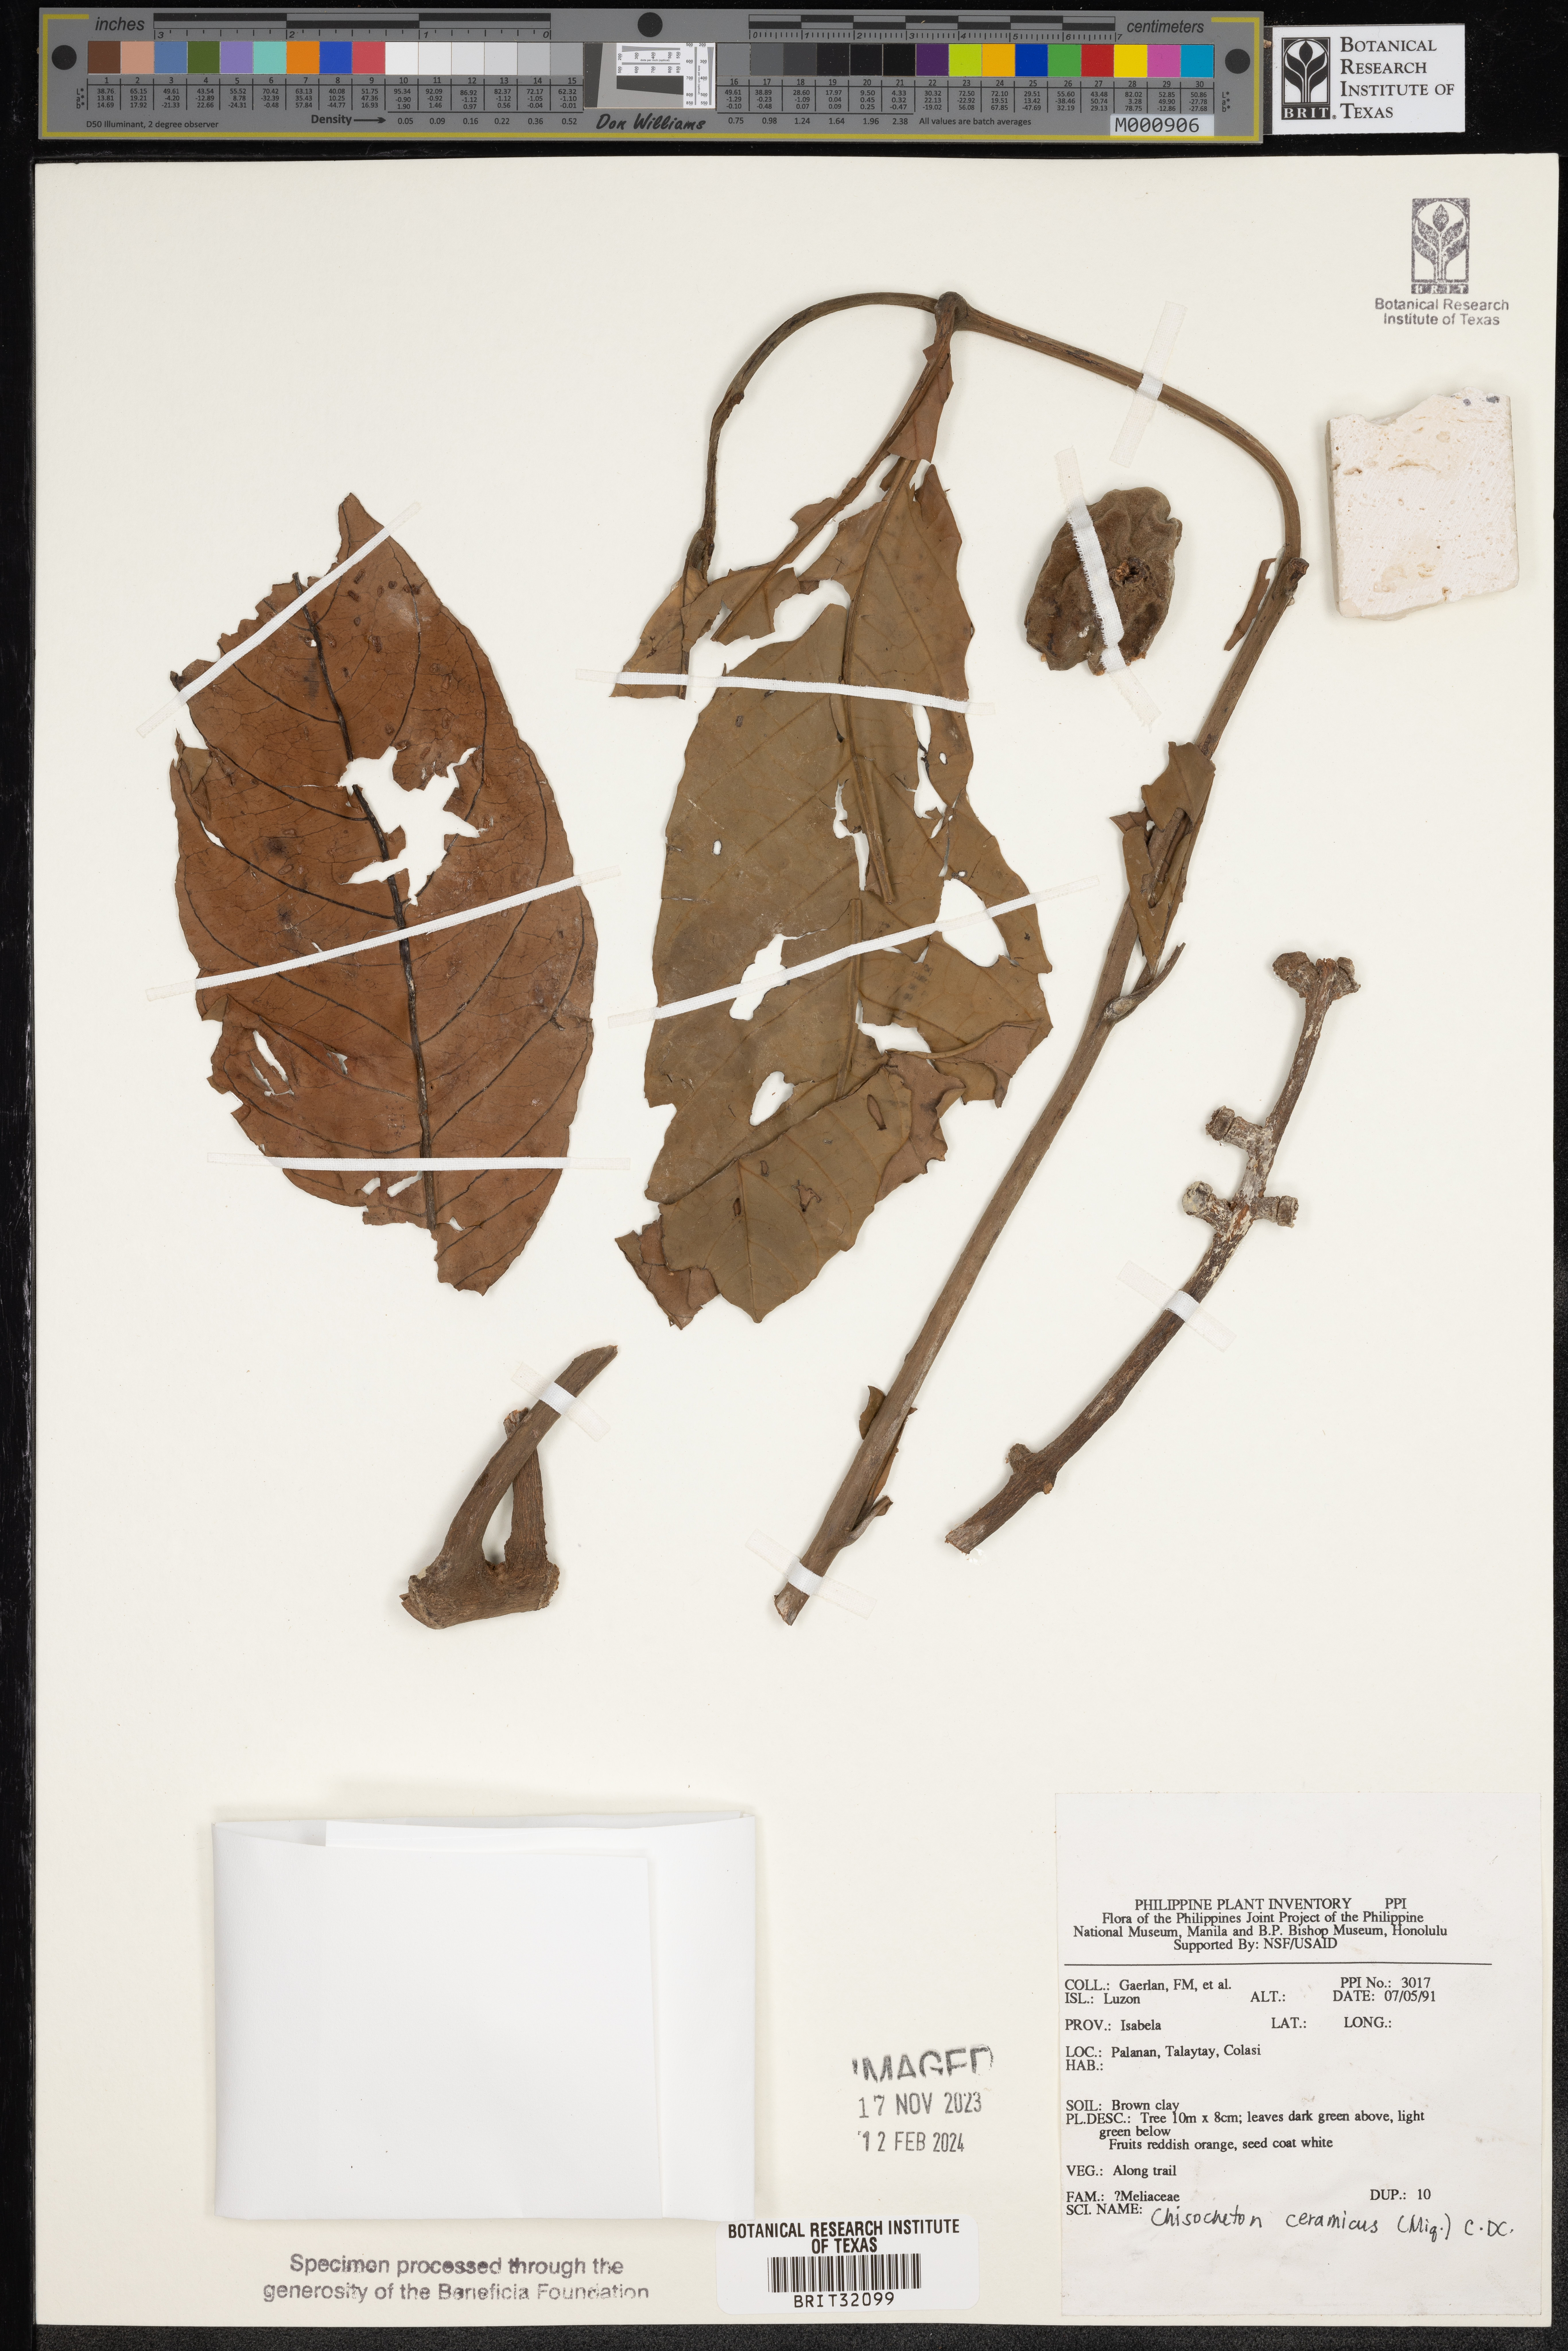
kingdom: Plantae
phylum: Tracheophyta
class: Magnoliopsida
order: Sapindales
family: Meliaceae
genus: Chisocheton
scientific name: Chisocheton ceramicus
